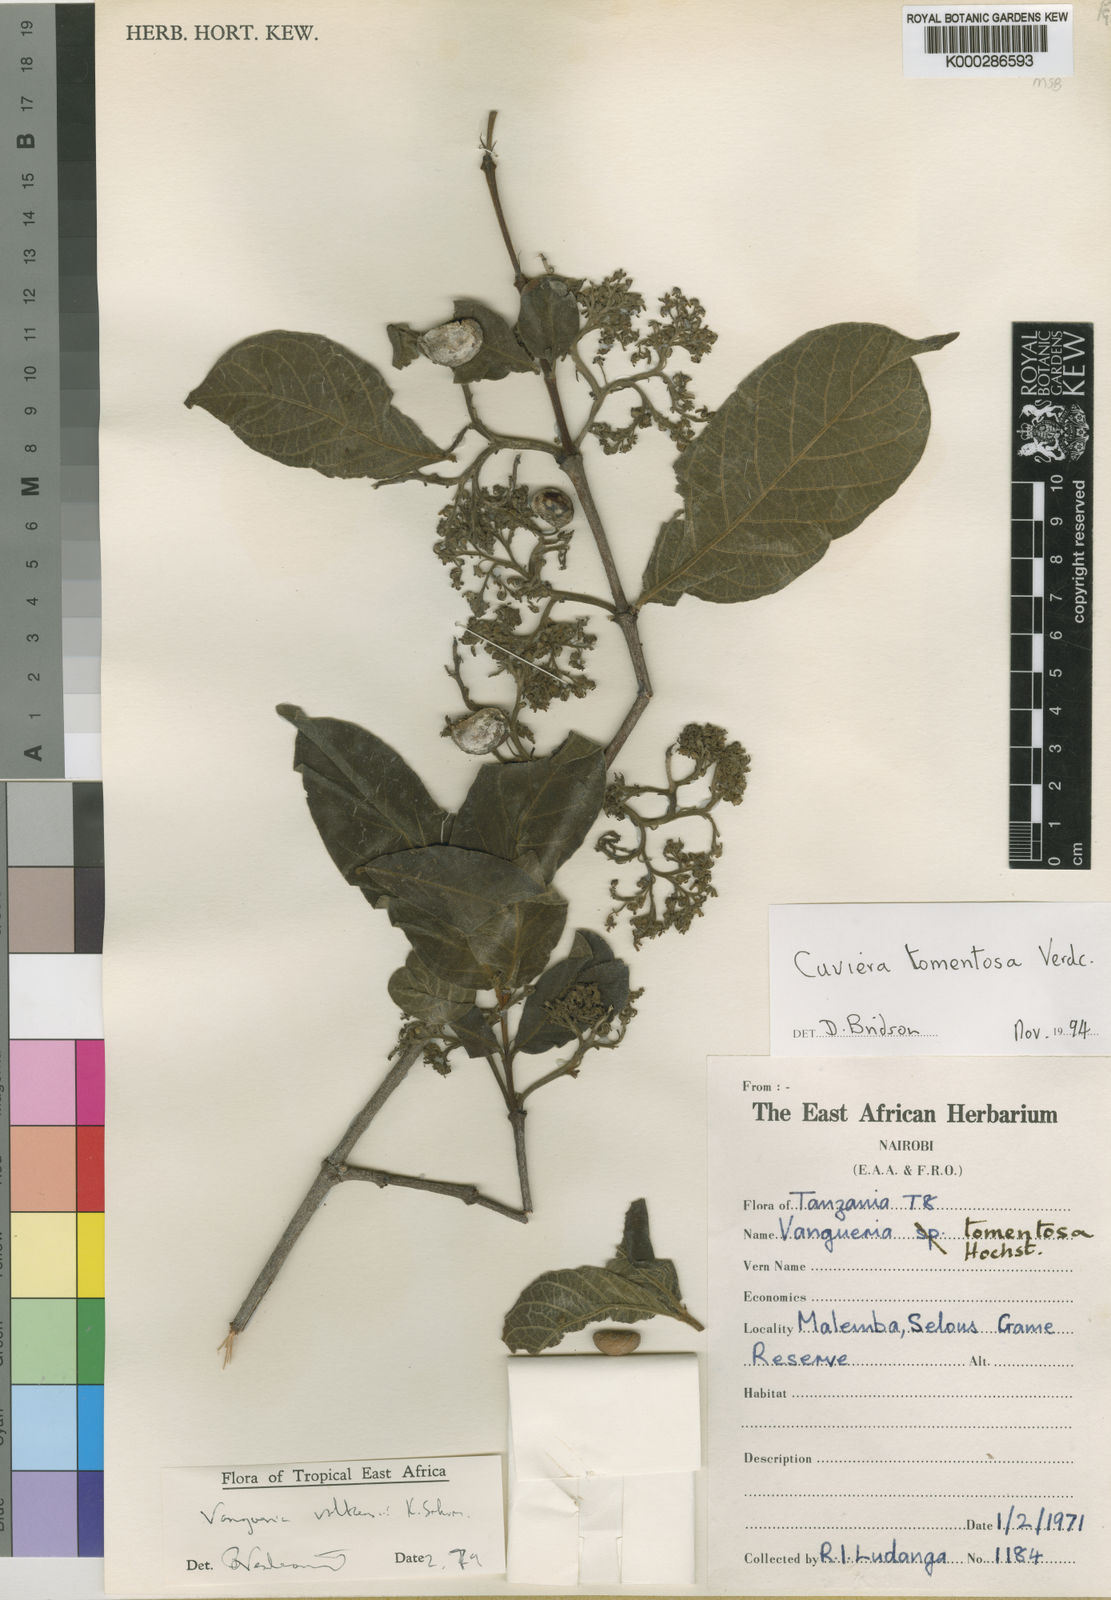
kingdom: Plantae
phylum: Tracheophyta
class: Magnoliopsida
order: Gentianales
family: Rubiaceae
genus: Cuviera
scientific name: Cuviera tomentosa
